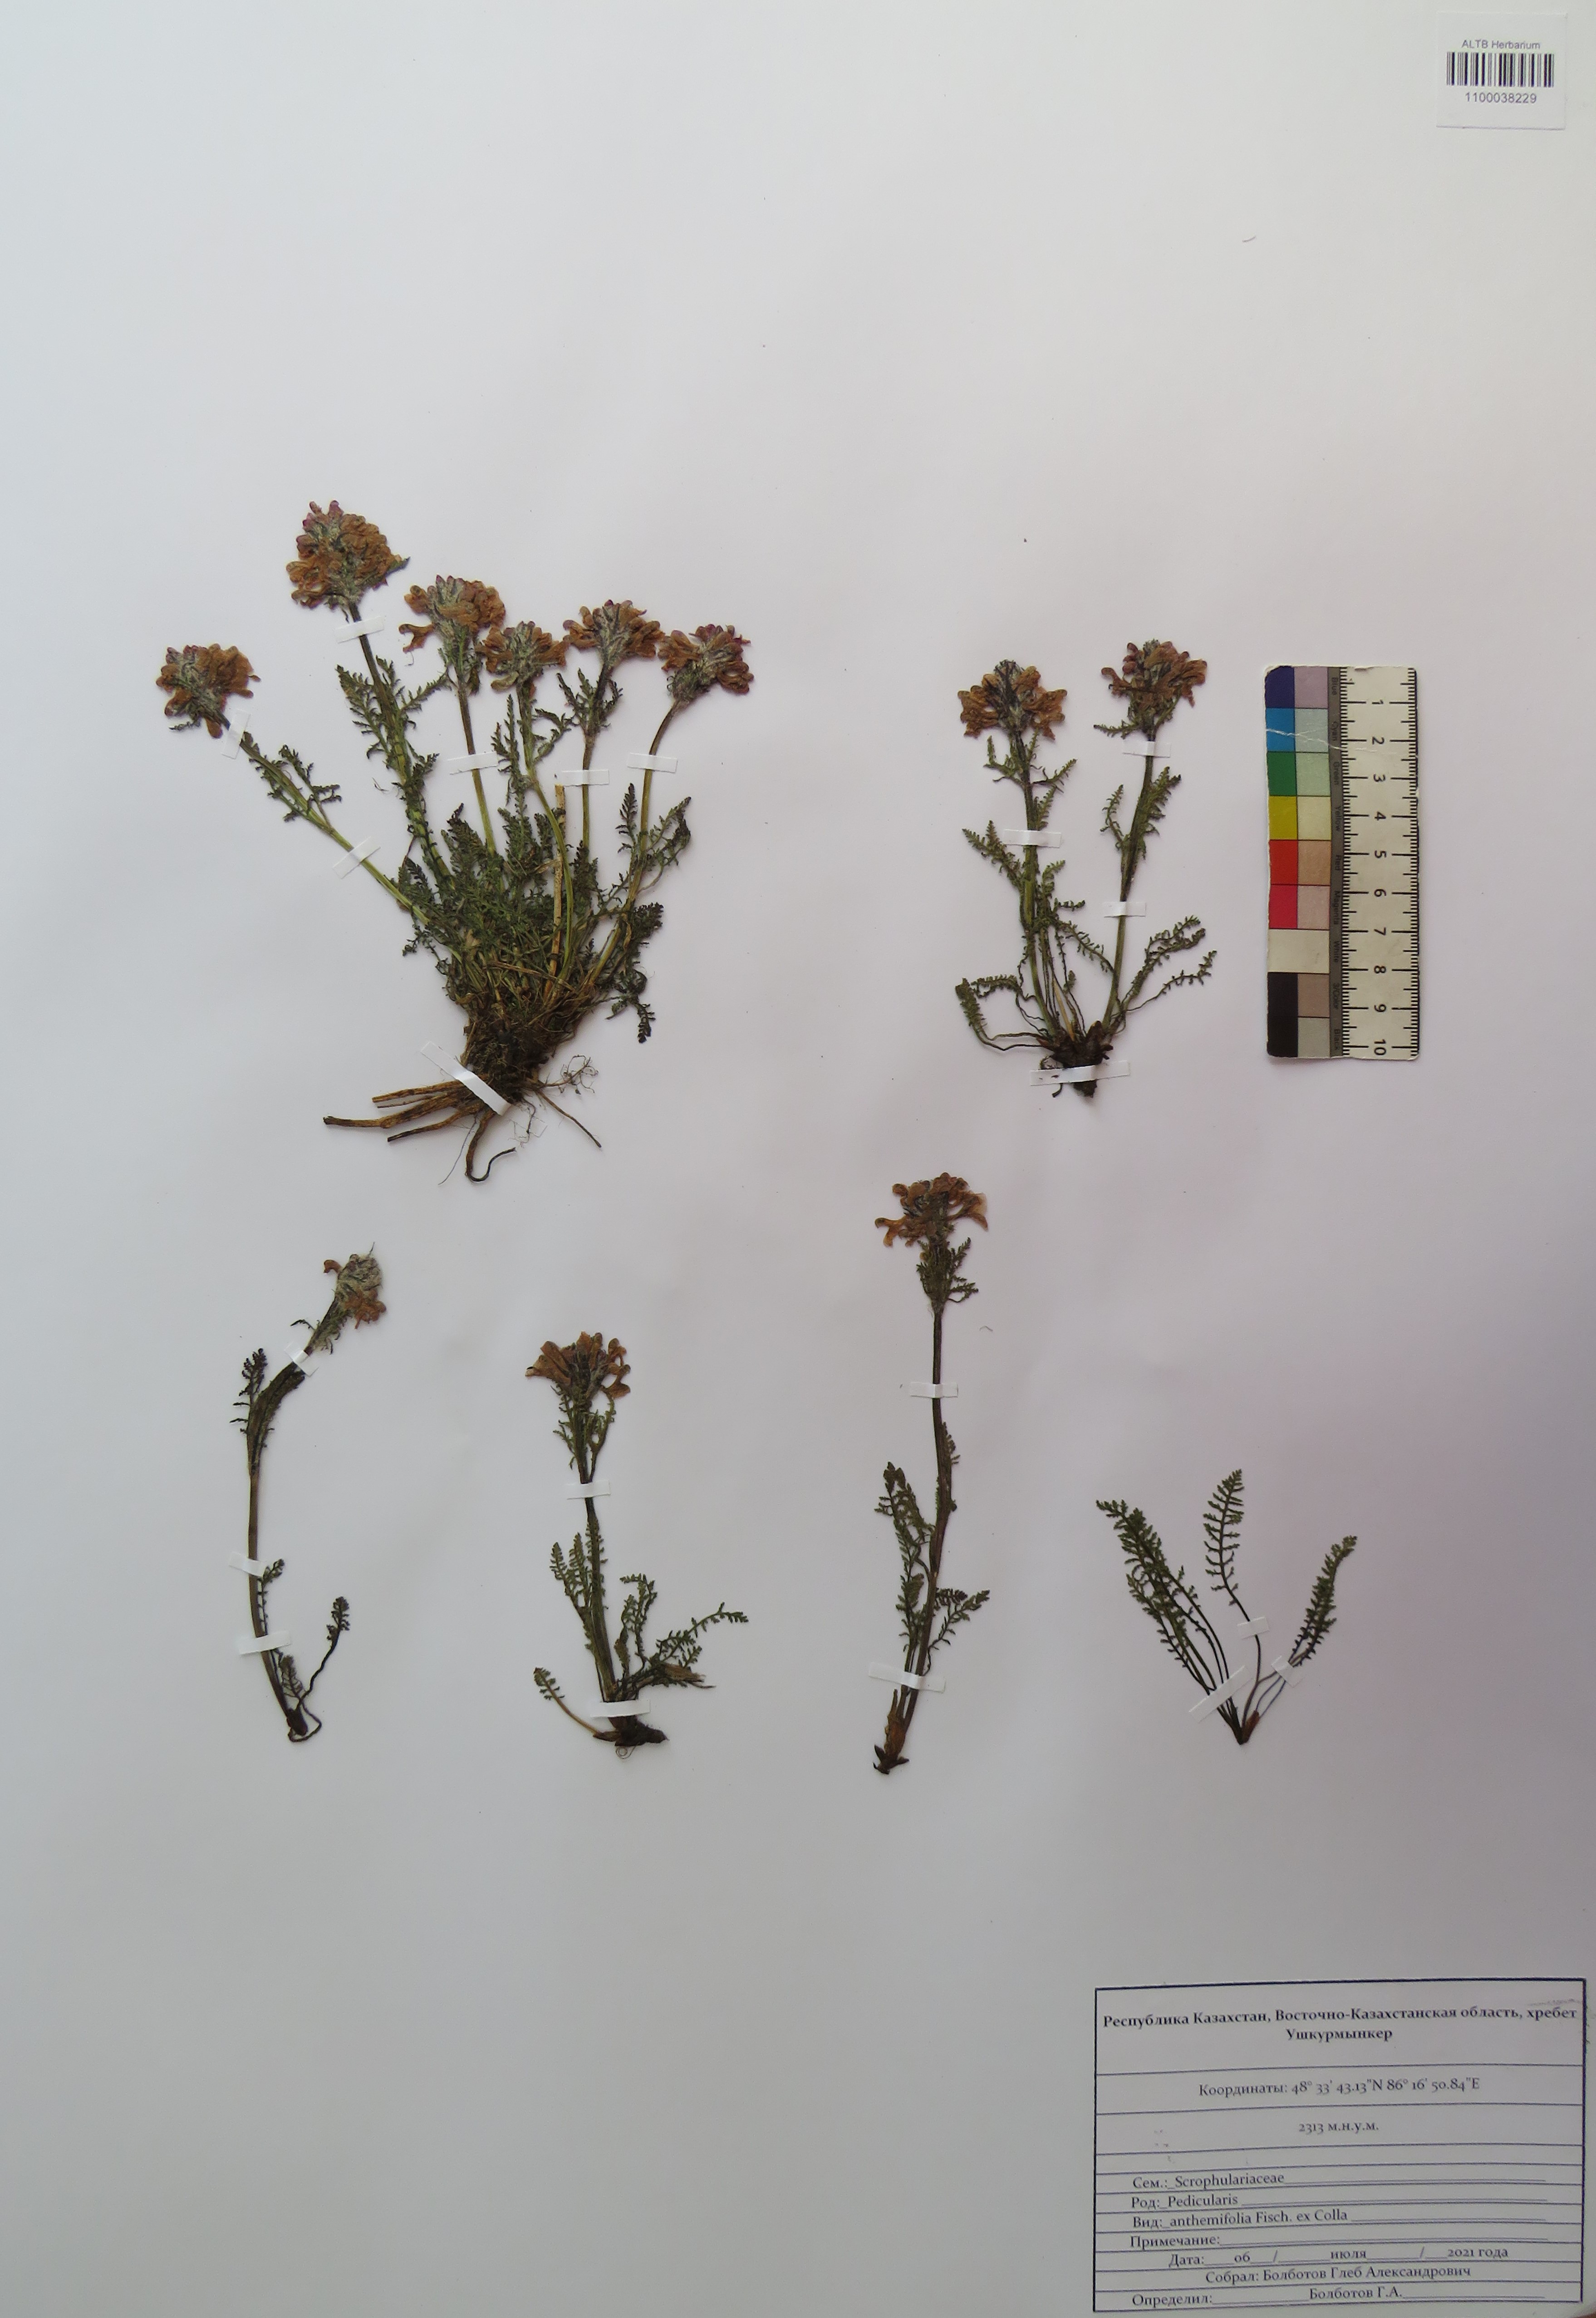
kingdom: Plantae
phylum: Tracheophyta
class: Magnoliopsida
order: Lamiales
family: Orobanchaceae
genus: Pedicularis
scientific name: Pedicularis anthemifolia
